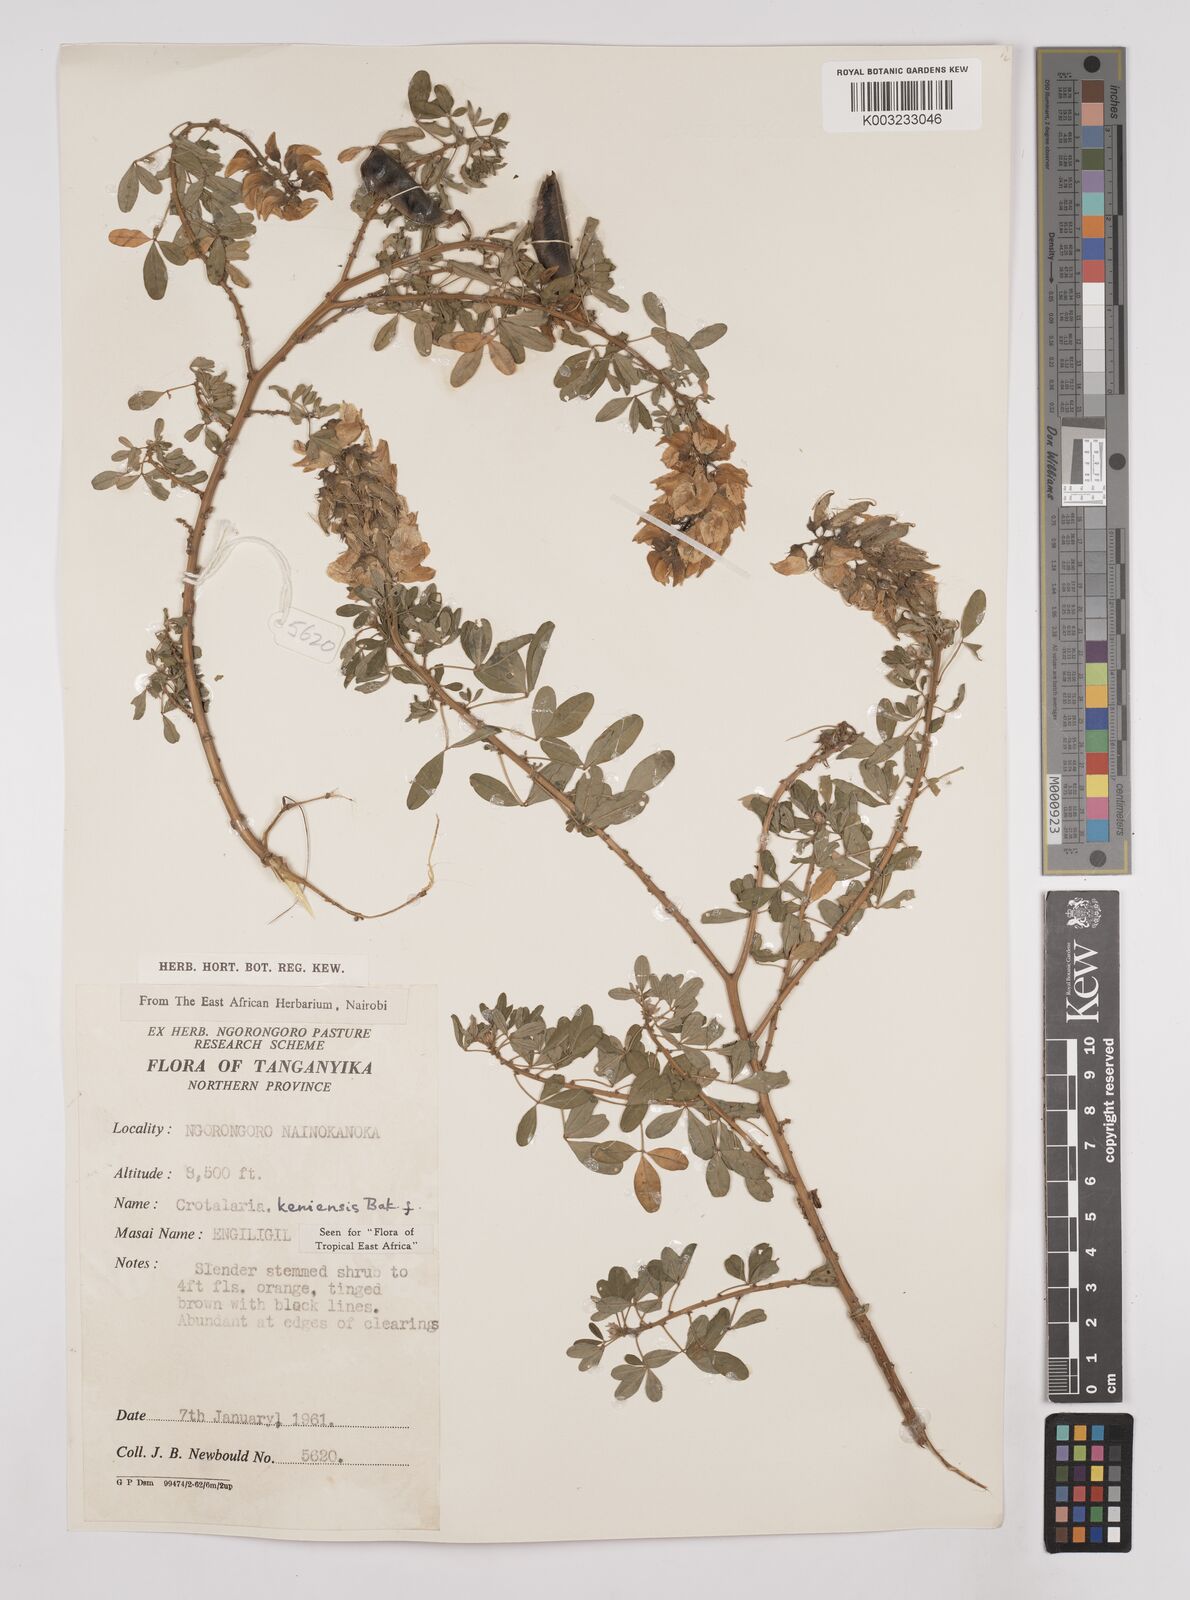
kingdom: Plantae
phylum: Tracheophyta
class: Magnoliopsida
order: Fabales
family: Fabaceae
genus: Crotalaria
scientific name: Crotalaria keniensis
